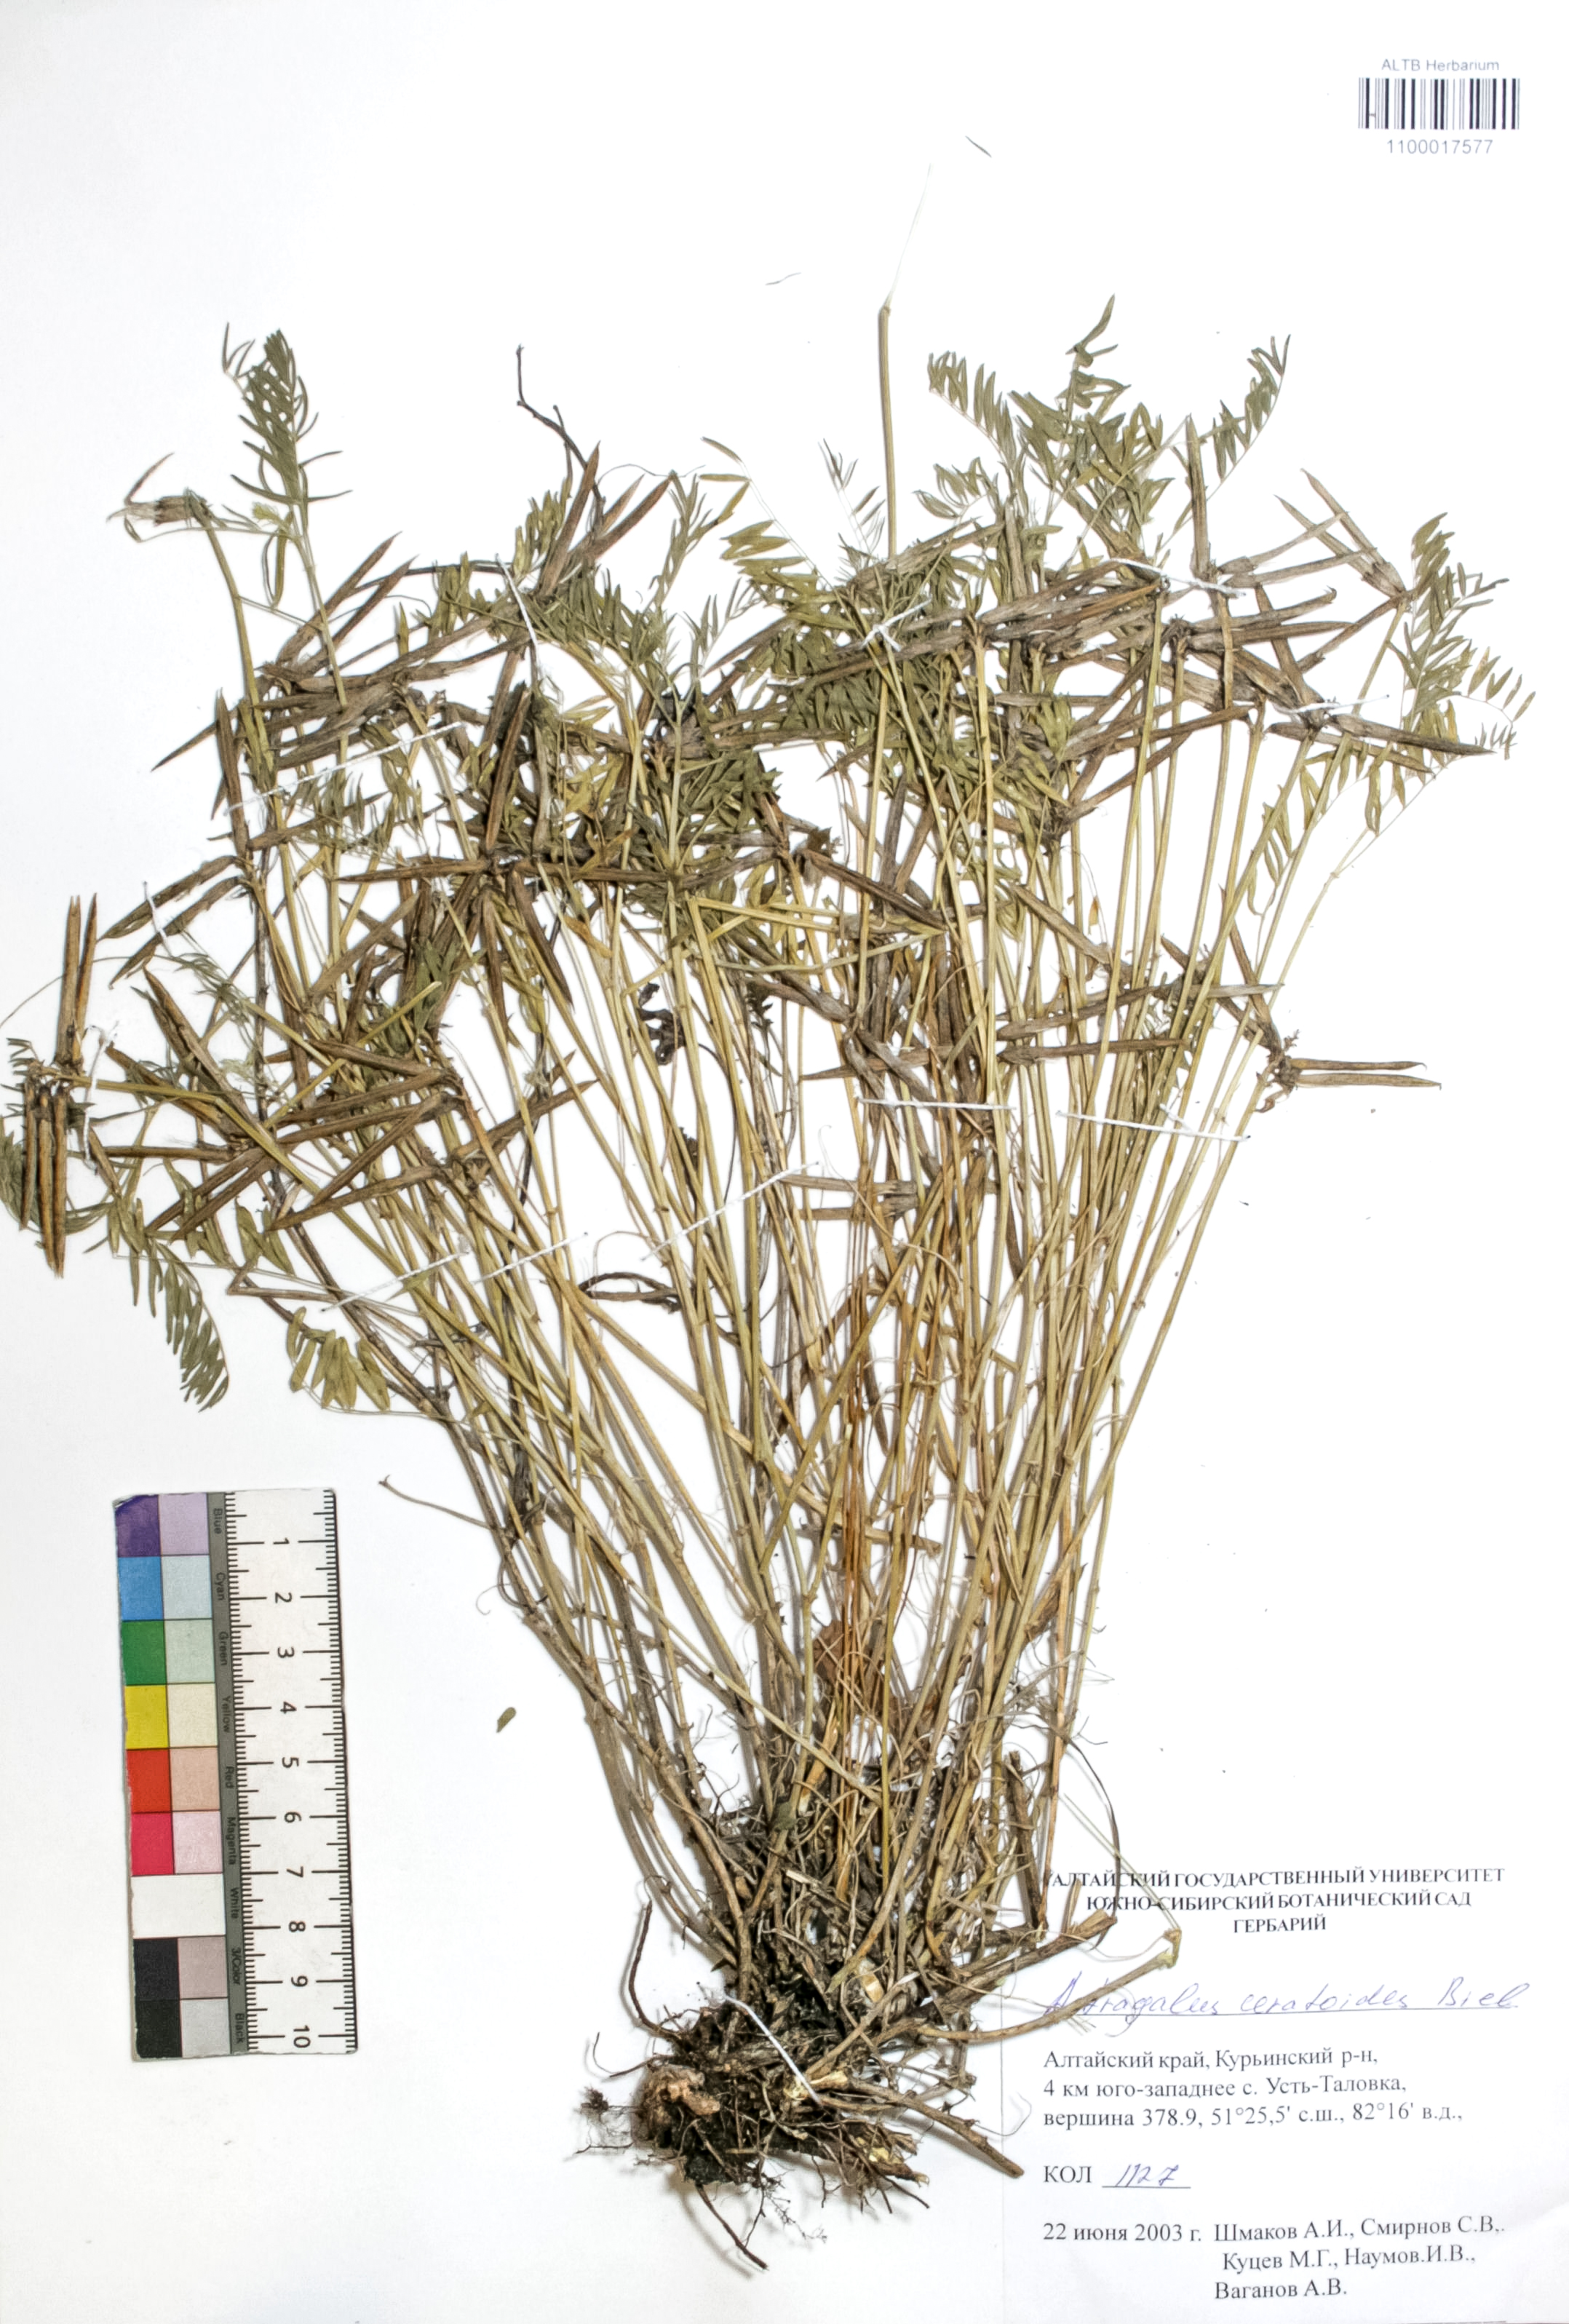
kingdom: Plantae
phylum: Tracheophyta
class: Magnoliopsida
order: Fabales
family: Fabaceae
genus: Astragalus
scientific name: Astragalus ceratoides
